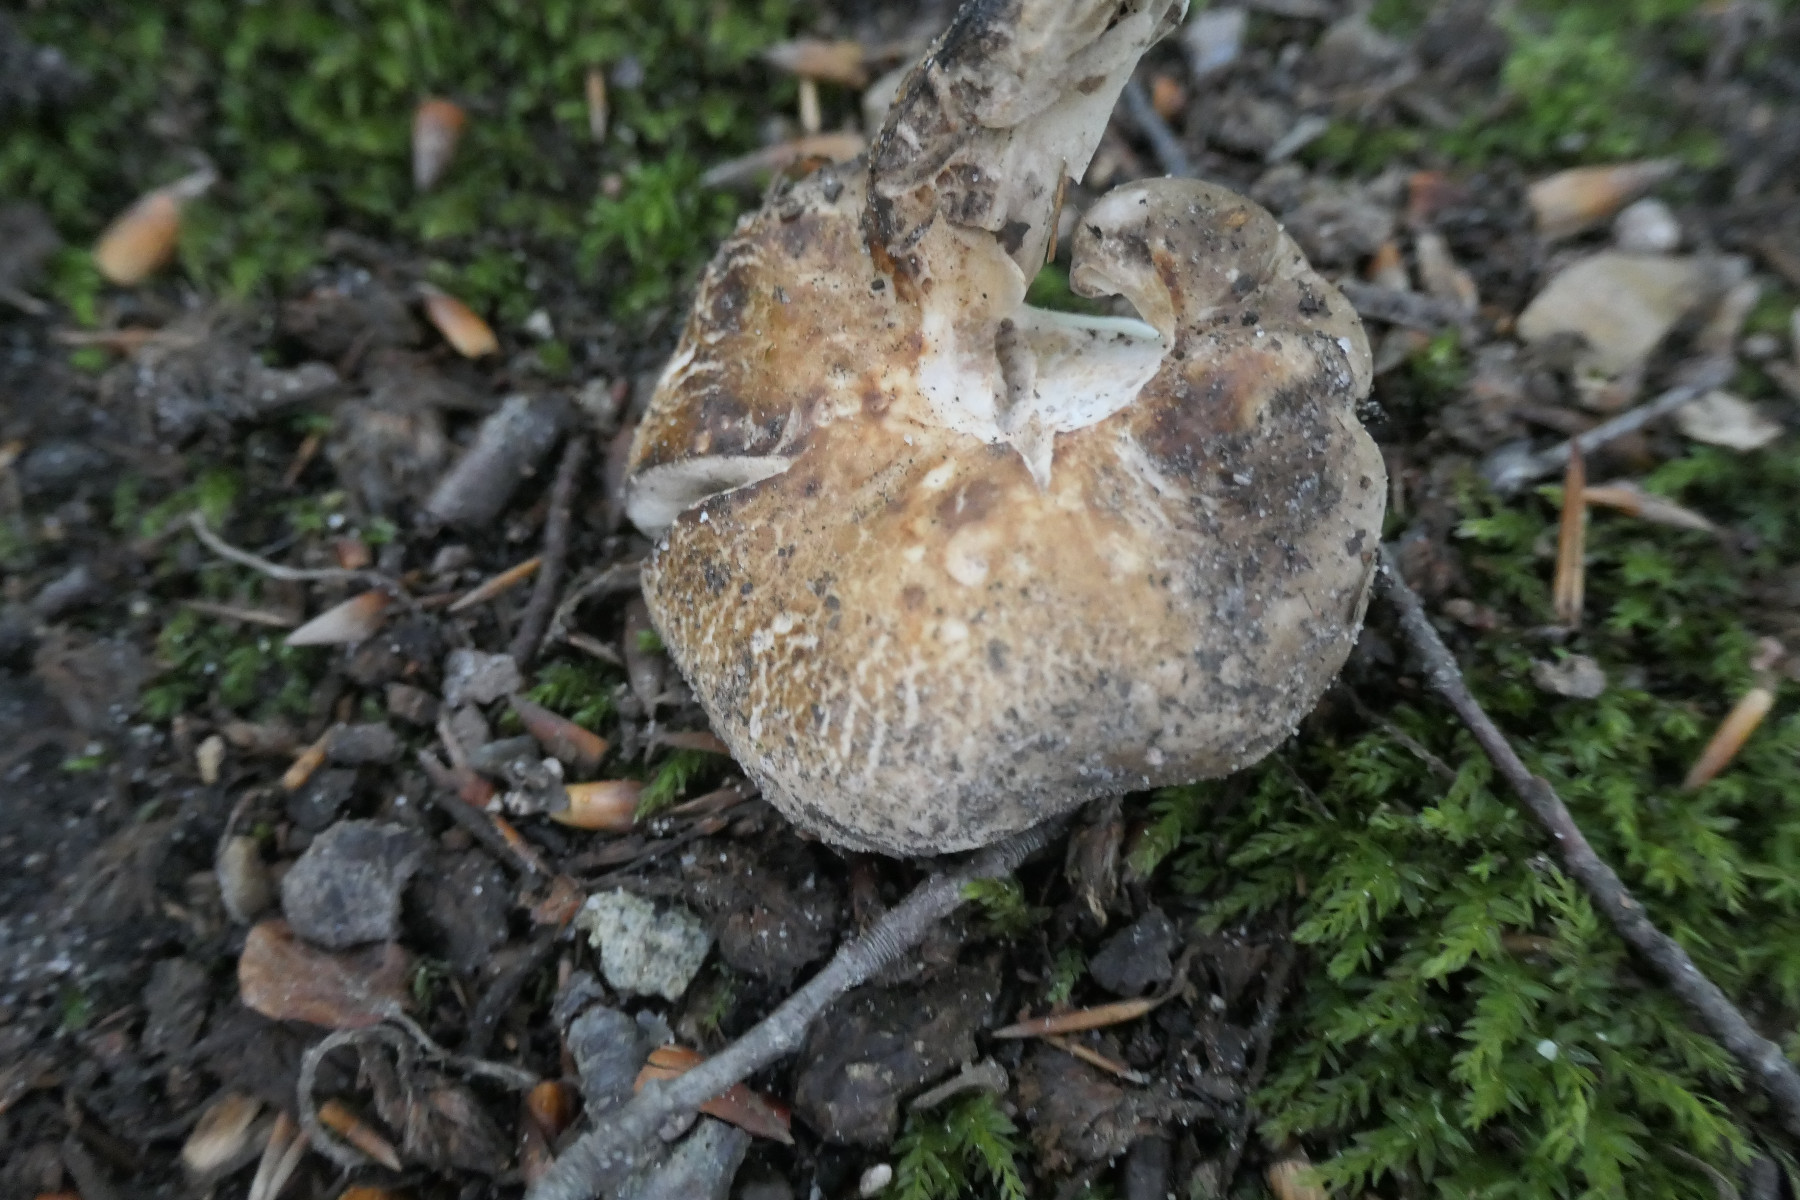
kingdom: Fungi
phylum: Basidiomycota
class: Agaricomycetes
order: Russulales
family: Russulaceae
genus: Russula
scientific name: Russula densifolia
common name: tætbladet skørhat
